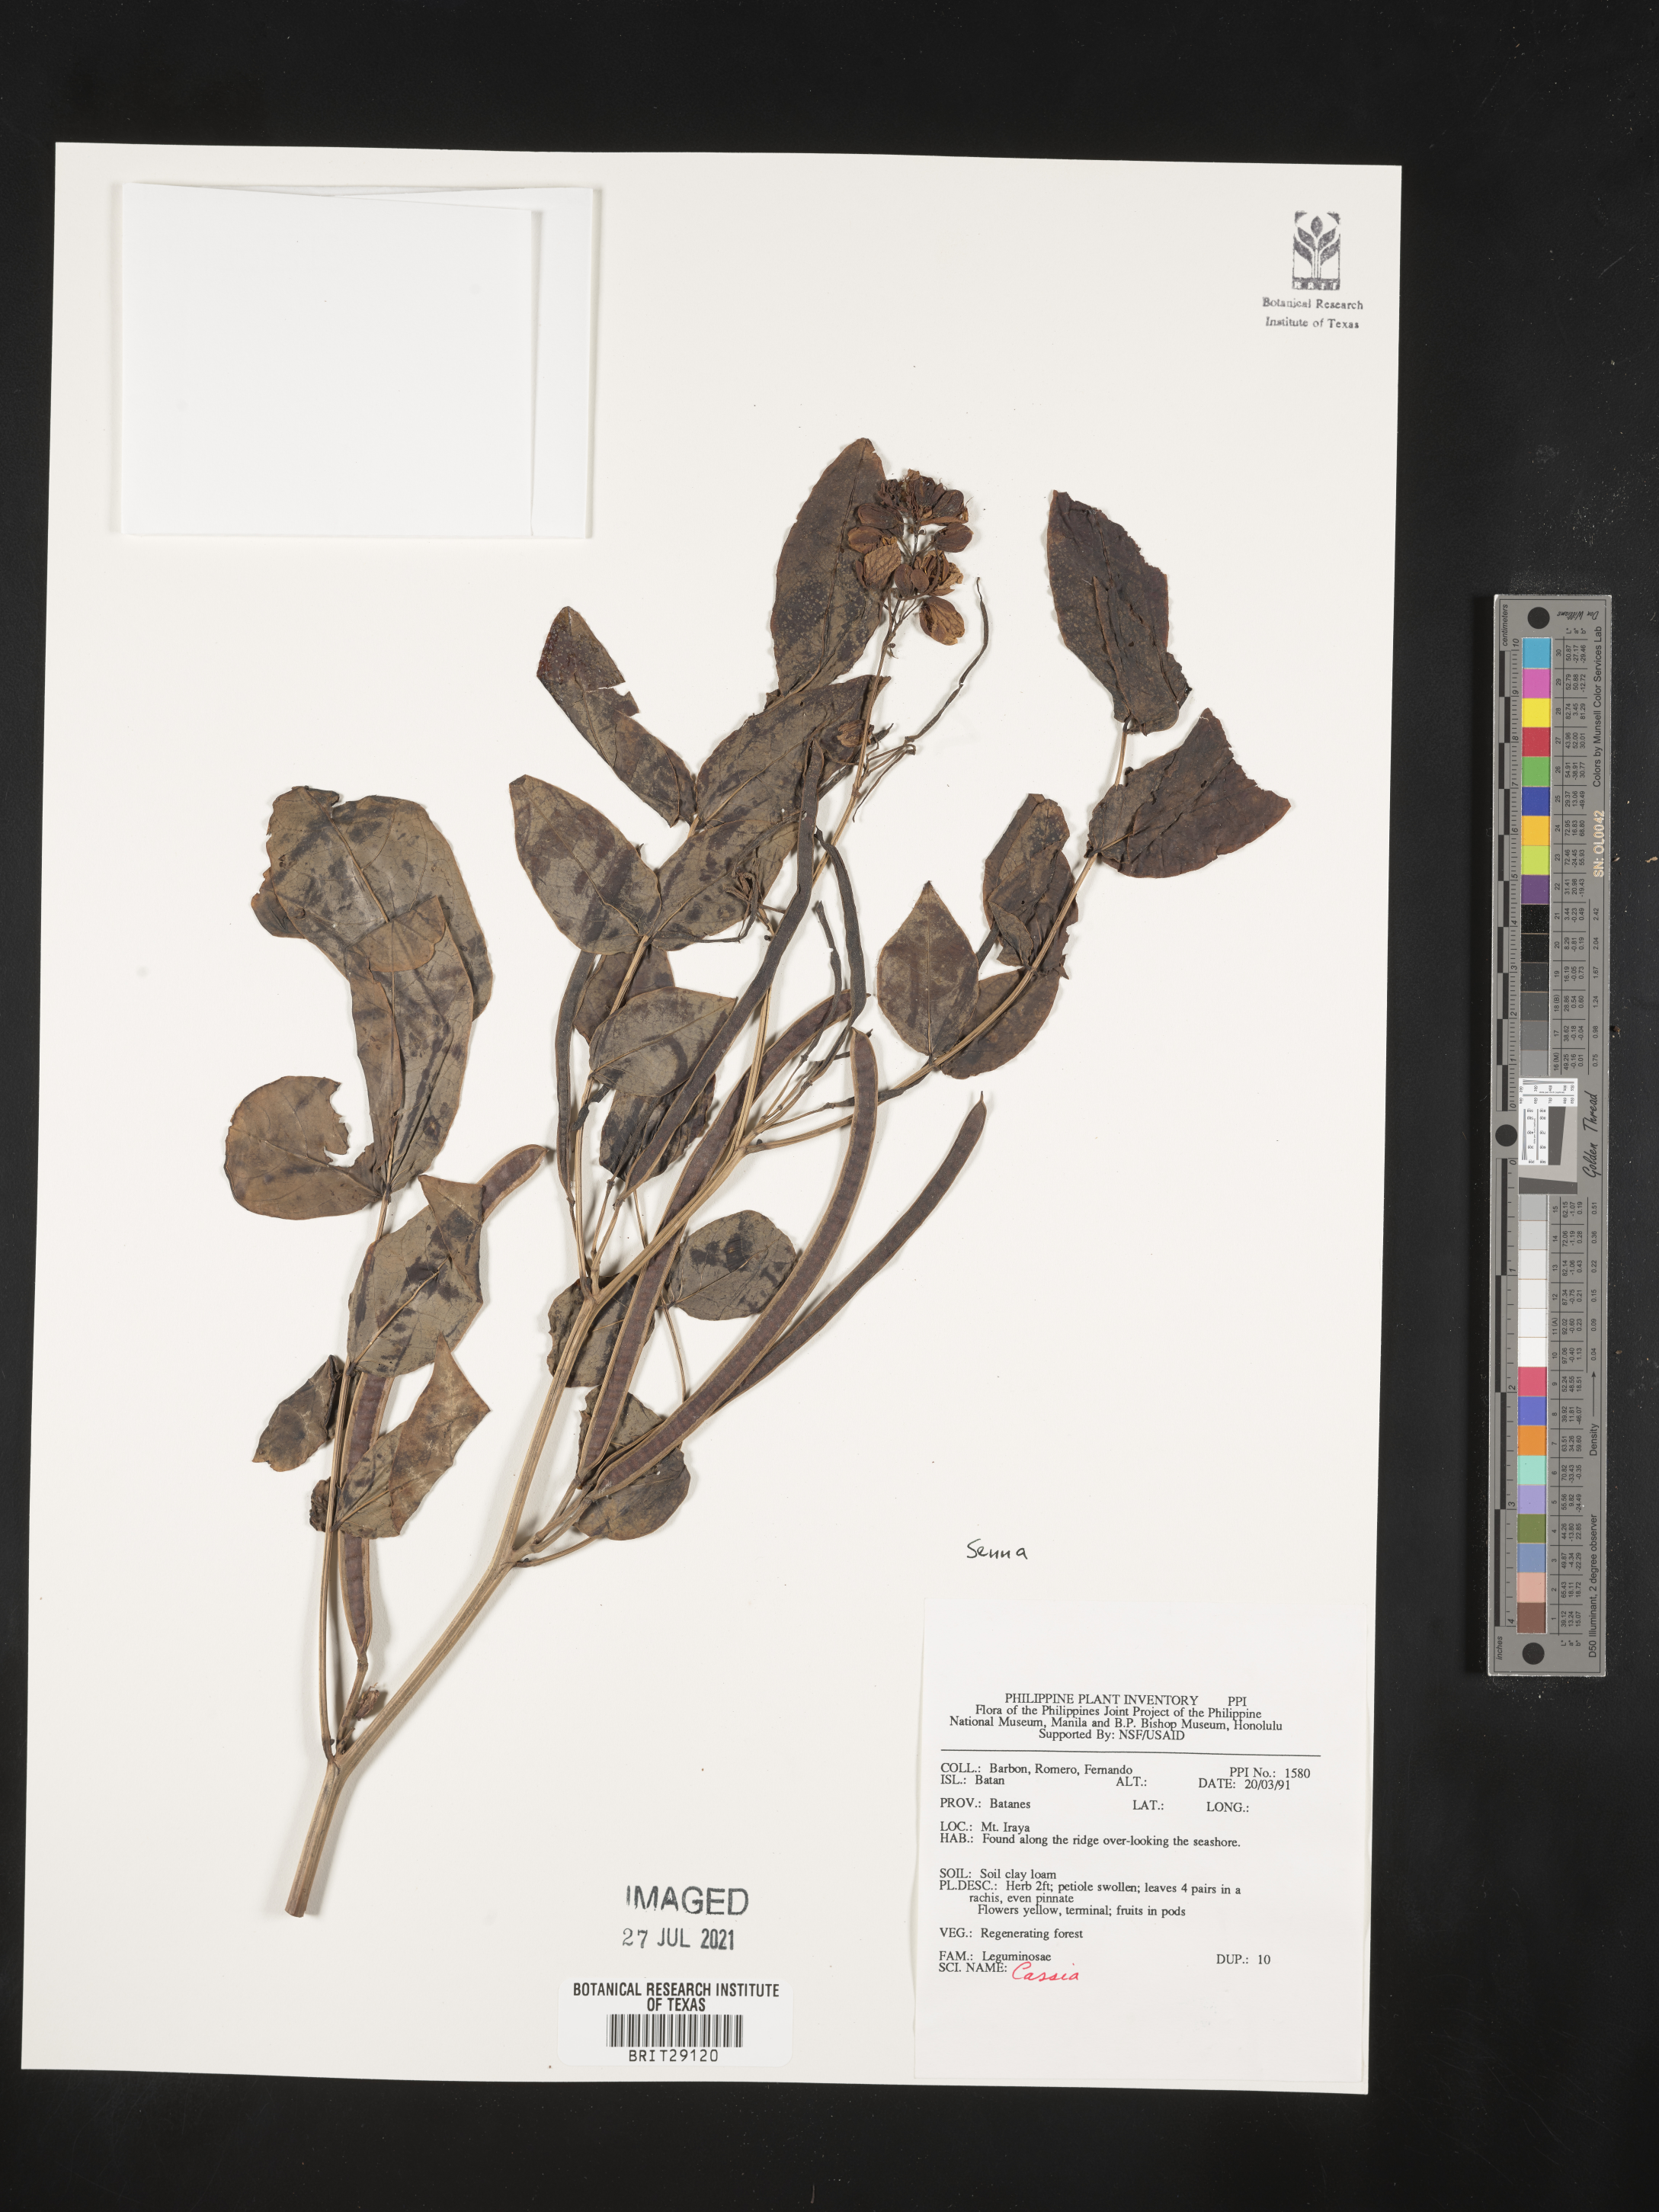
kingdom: Plantae
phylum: Tracheophyta
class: Magnoliopsida
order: Fabales
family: Fabaceae
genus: Senna
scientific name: Senna
